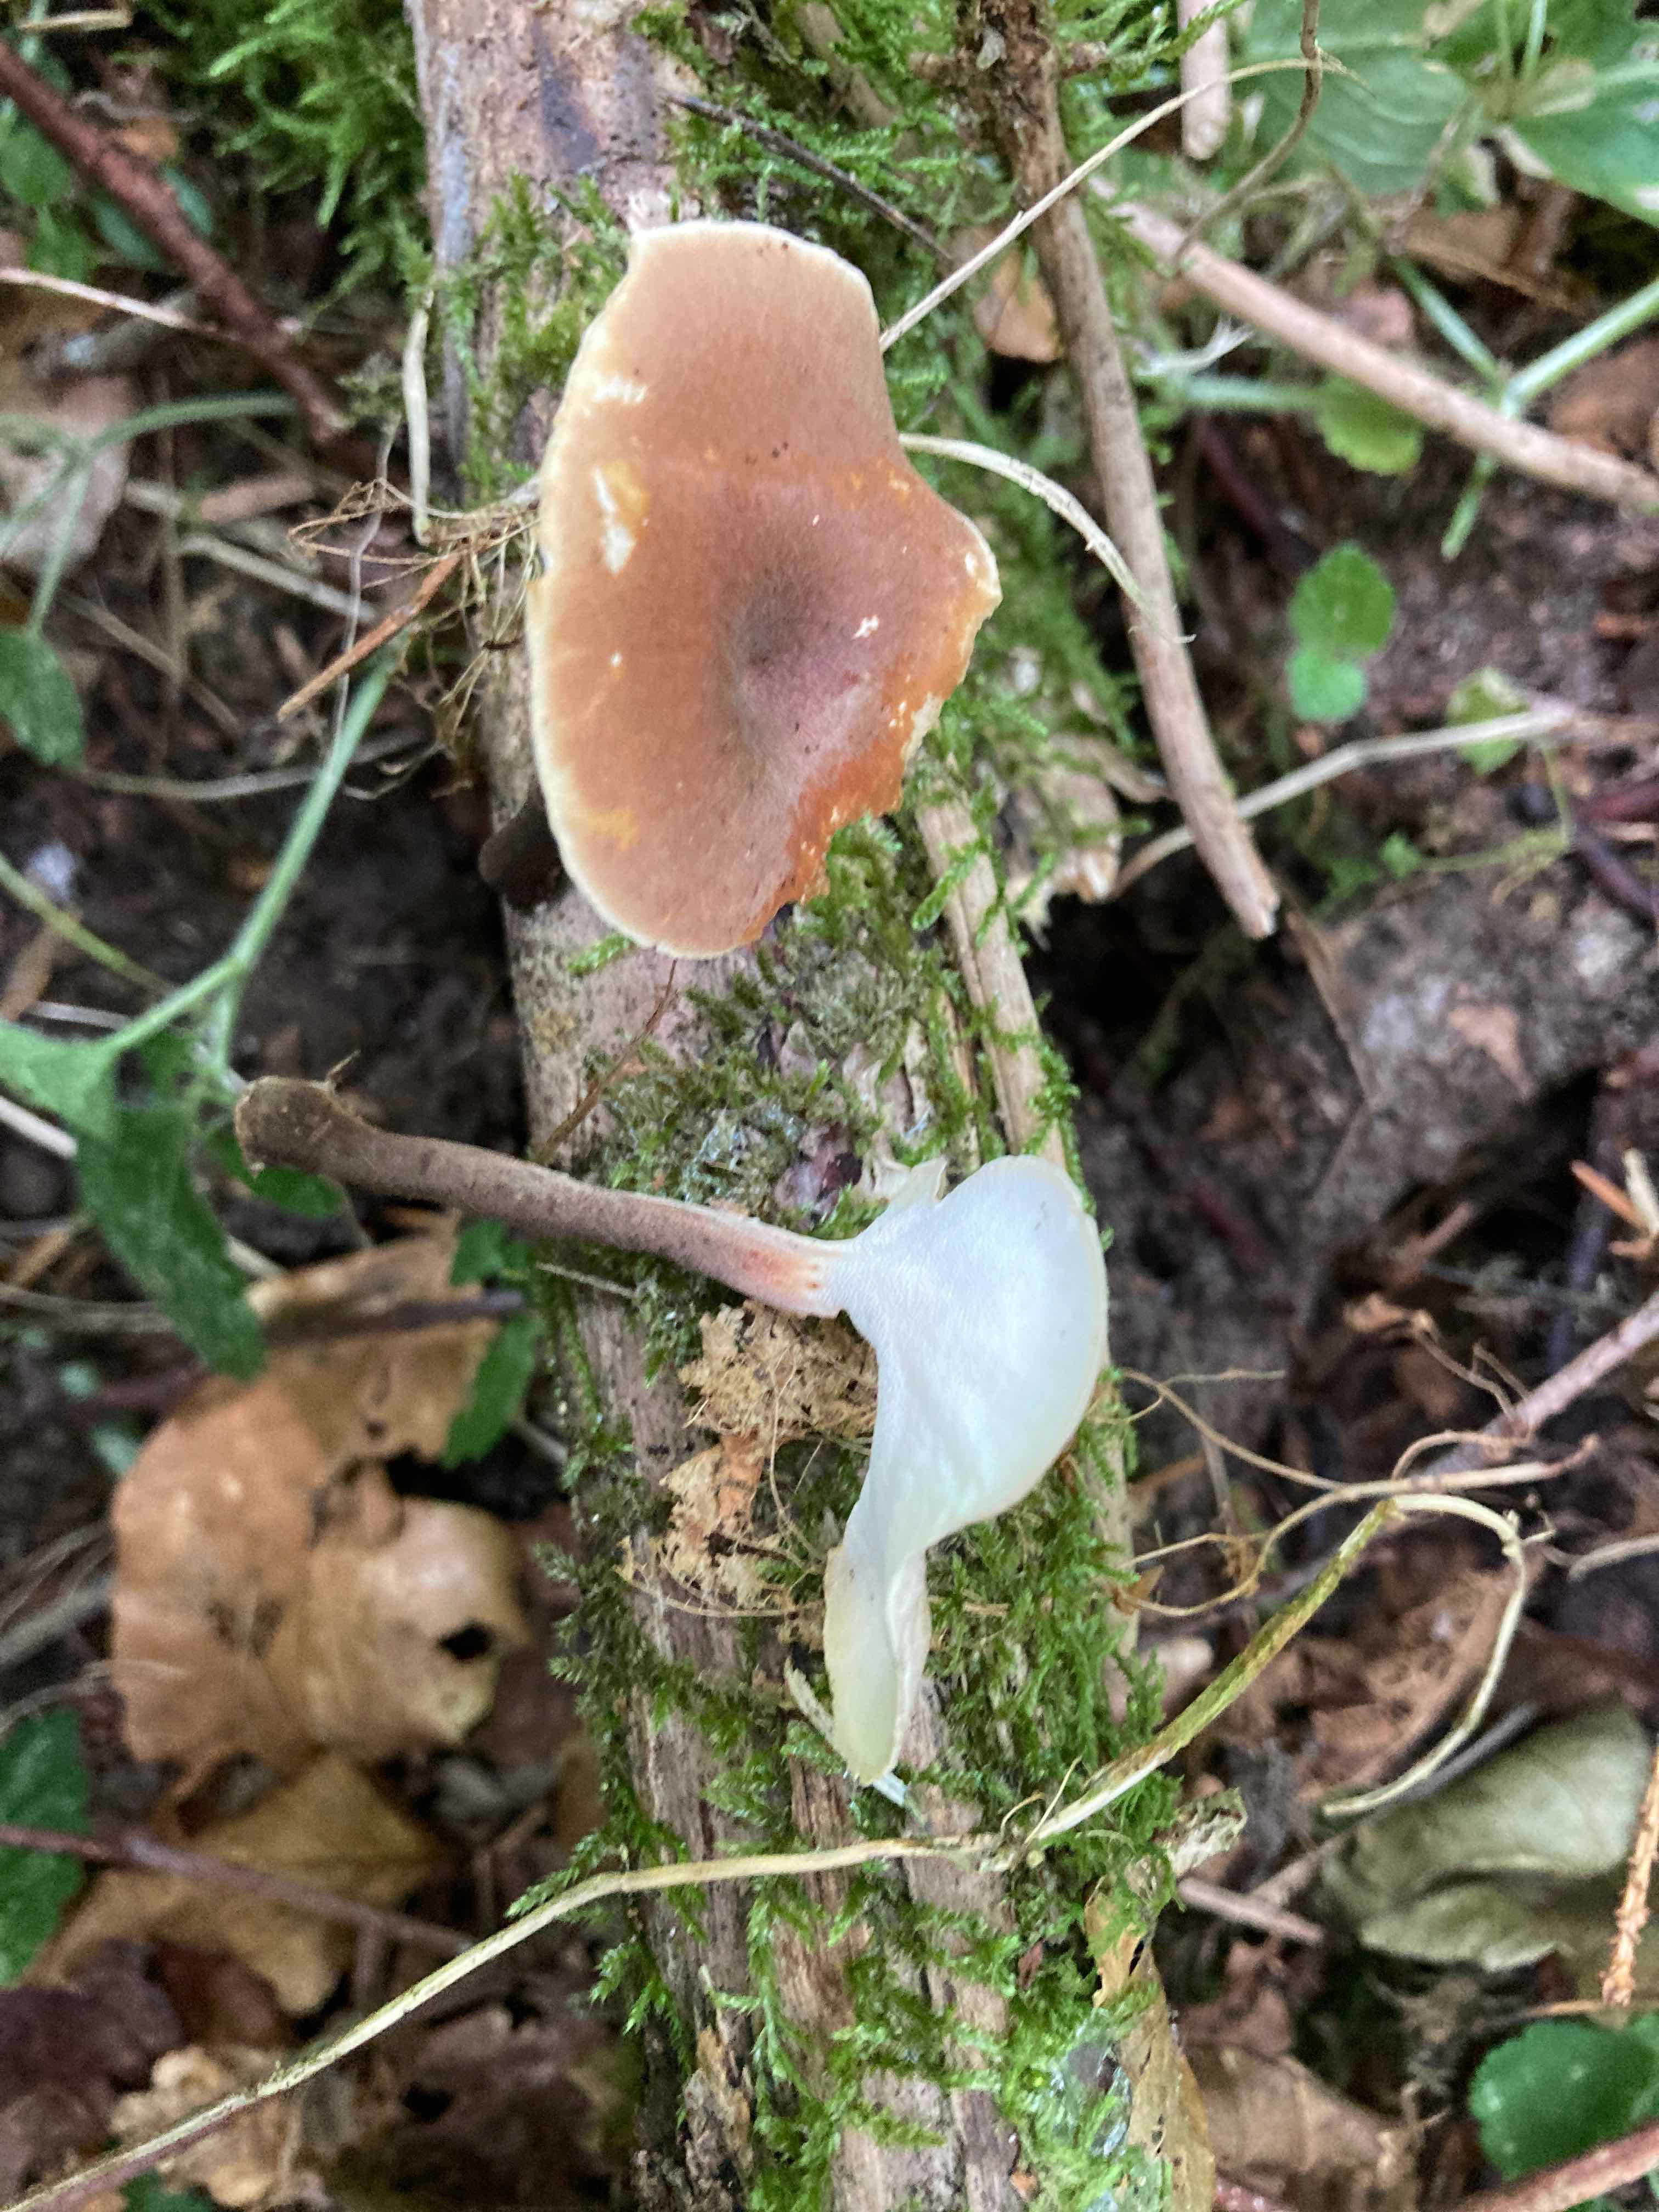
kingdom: Fungi
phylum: Basidiomycota
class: Agaricomycetes
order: Polyporales
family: Polyporaceae
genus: Picipes
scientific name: Picipes tubaeformis
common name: trompet-stilkporesvamp
